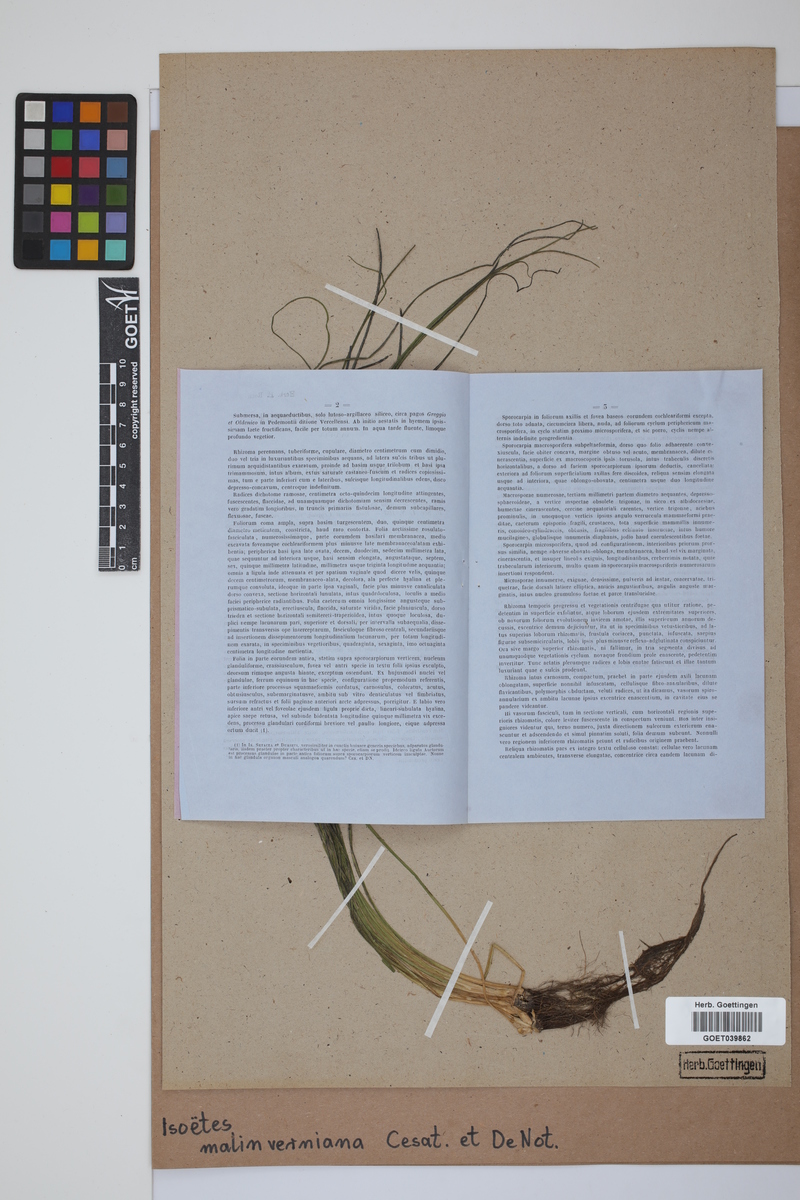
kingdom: Plantae
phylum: Tracheophyta
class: Lycopodiopsida
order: Isoetales
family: Isoetaceae
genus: Isoetes
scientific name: Isoetes malinverniana
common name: Piedmont quillwort
